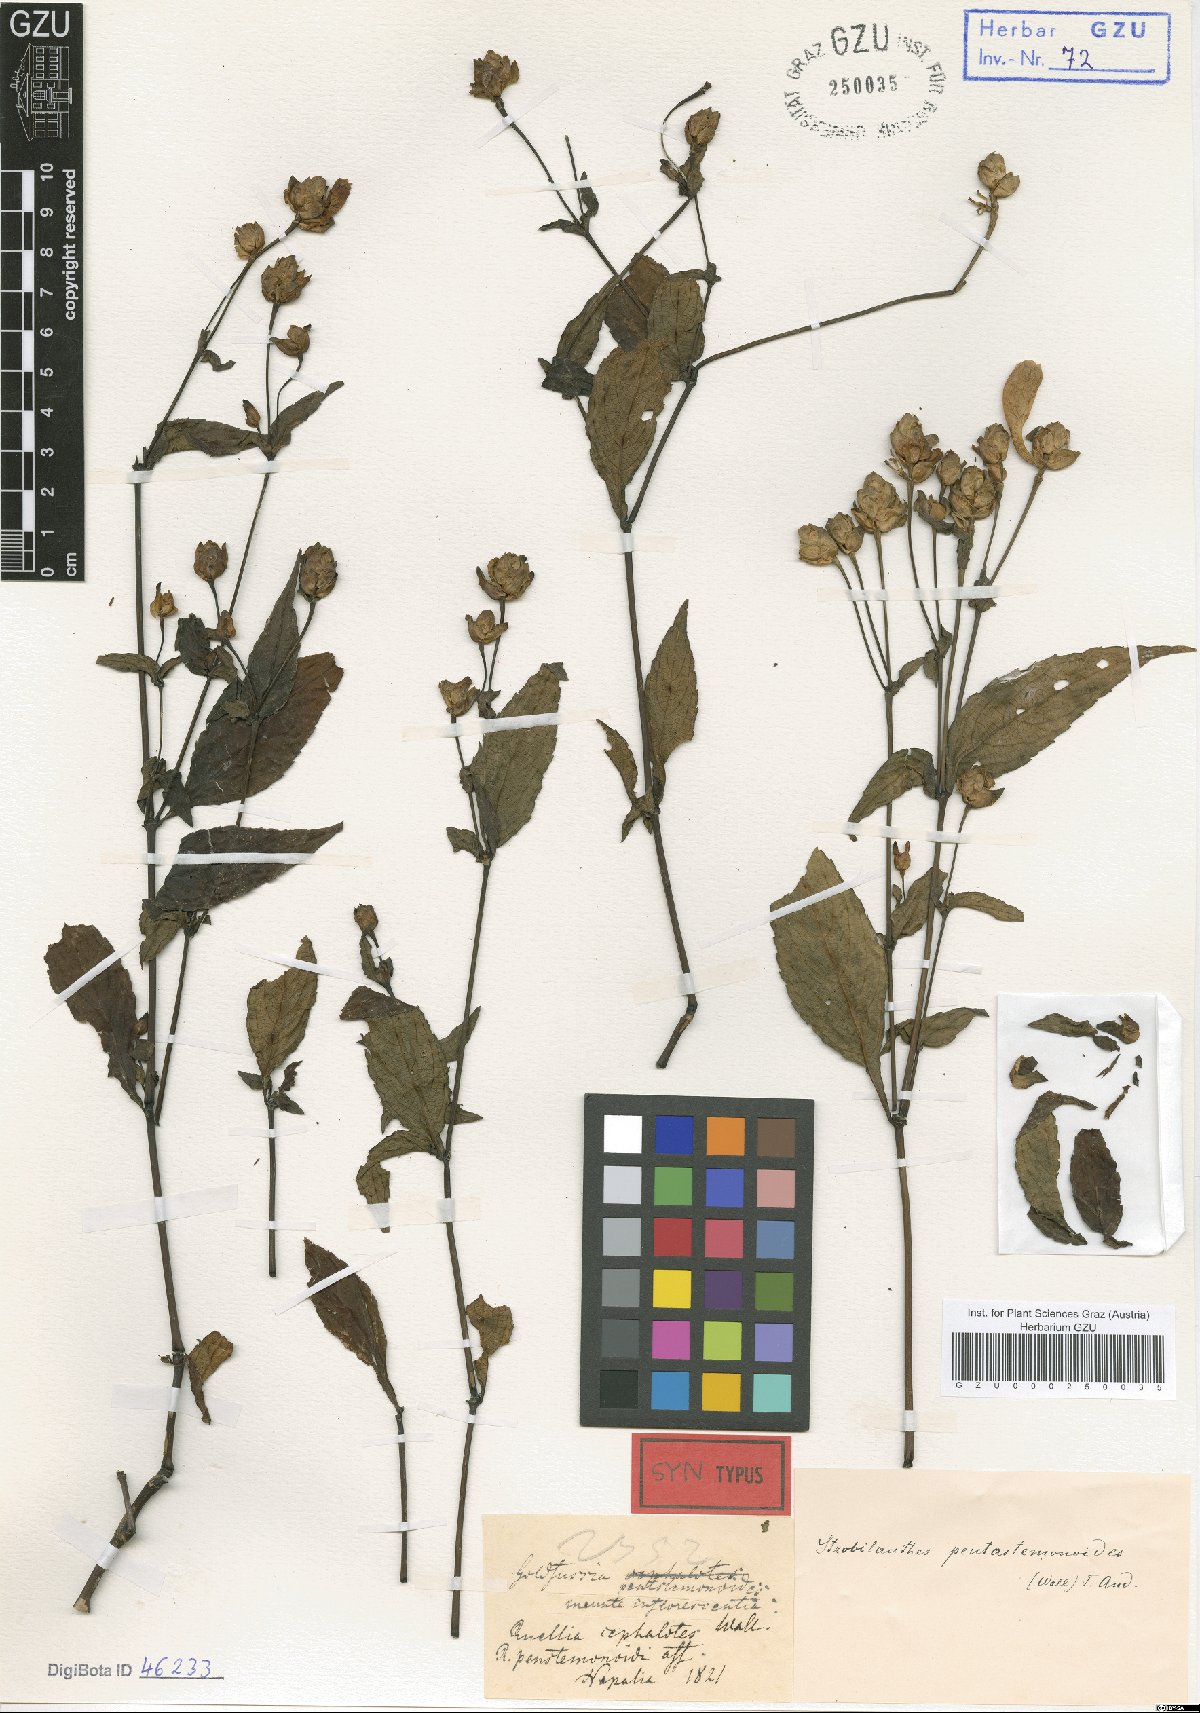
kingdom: Plantae
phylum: Tracheophyta
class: Magnoliopsida
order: Lamiales
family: Acanthaceae
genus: Strobilanthes
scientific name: Strobilanthes pentastemonoides
